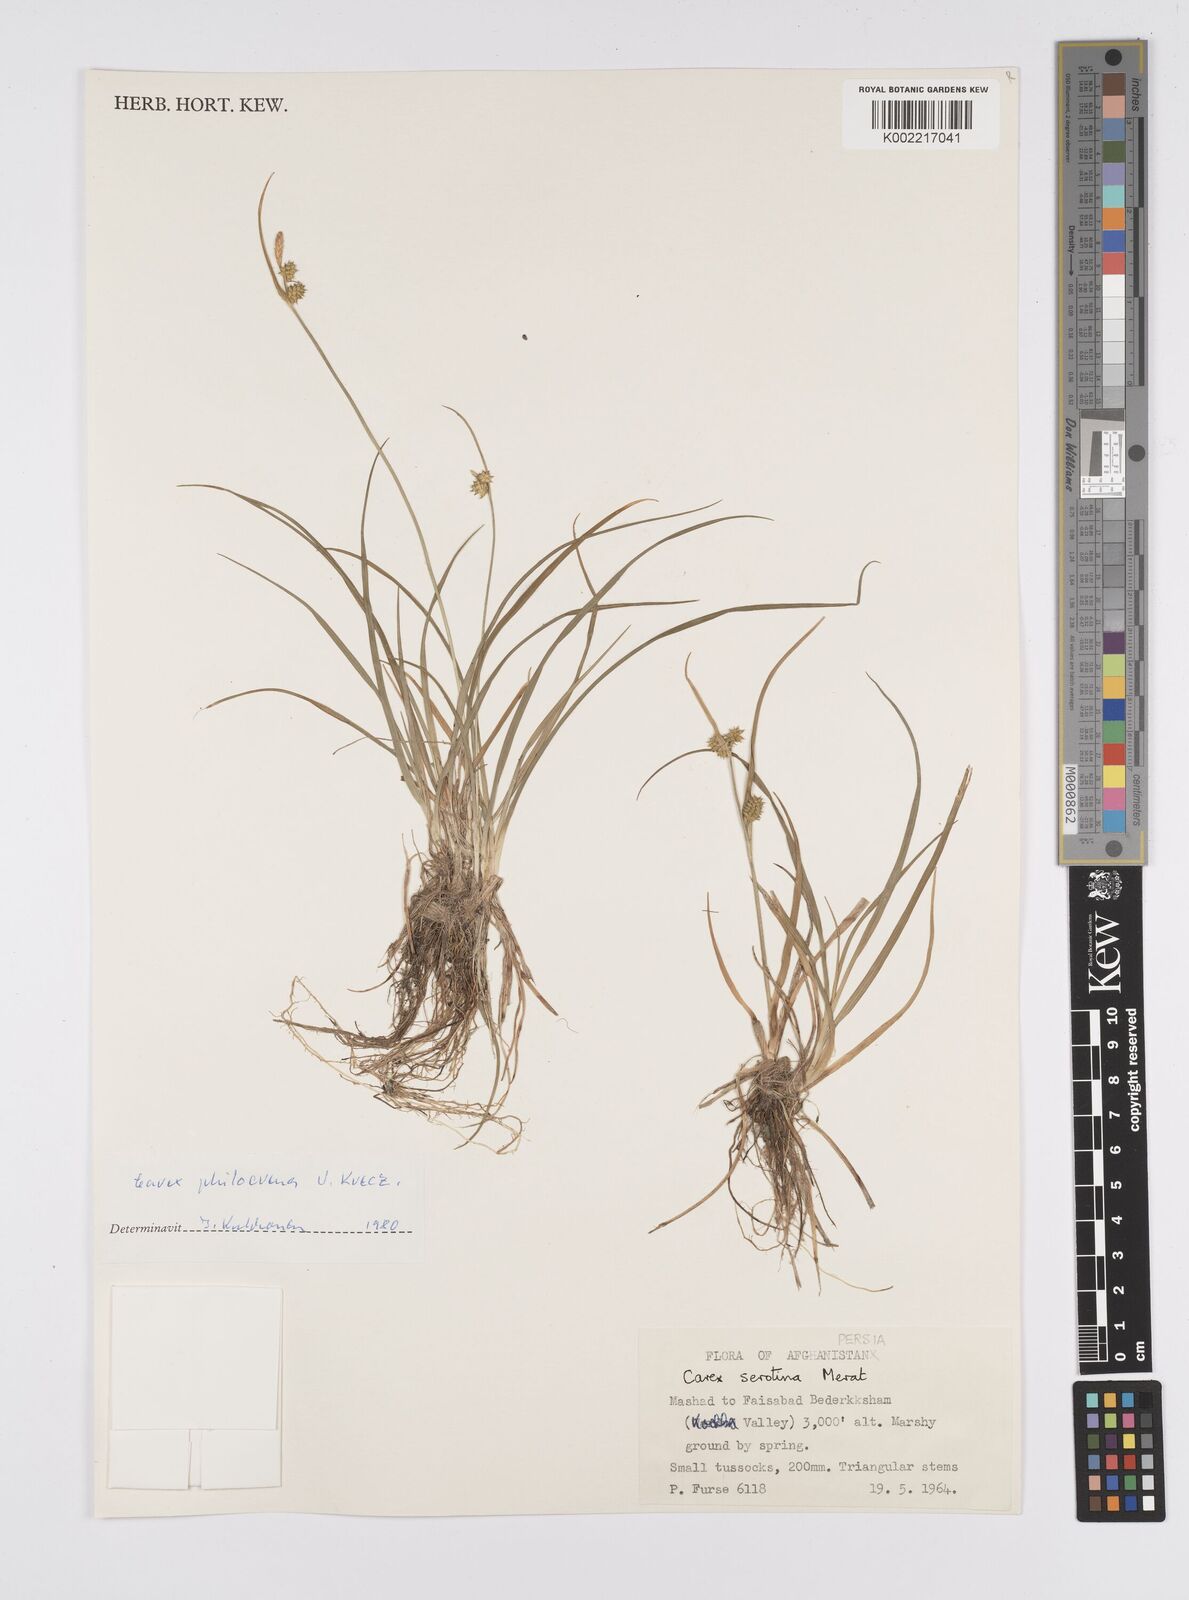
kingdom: Plantae
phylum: Tracheophyta
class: Liliopsida
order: Poales
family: Cyperaceae
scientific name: Cyperaceae
